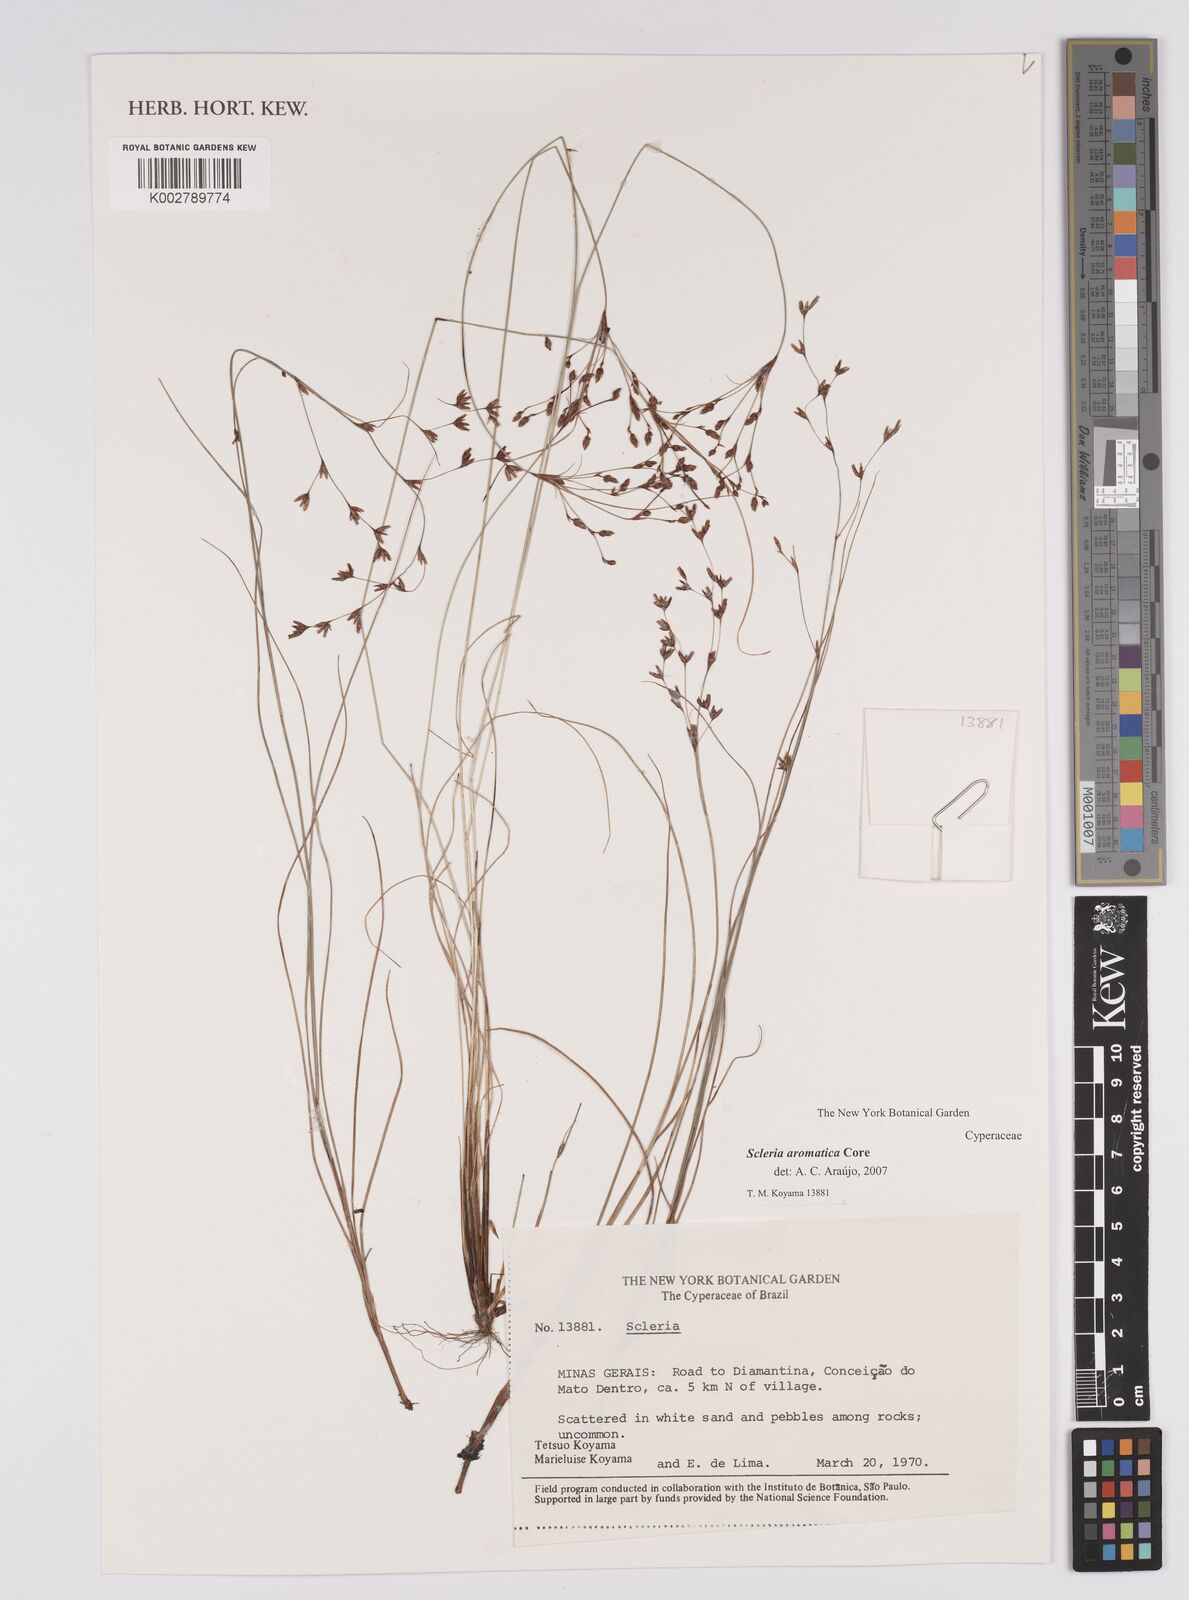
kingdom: Plantae
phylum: Tracheophyta
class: Liliopsida
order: Poales
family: Cyperaceae
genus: Scleria
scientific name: Scleria aromatica
